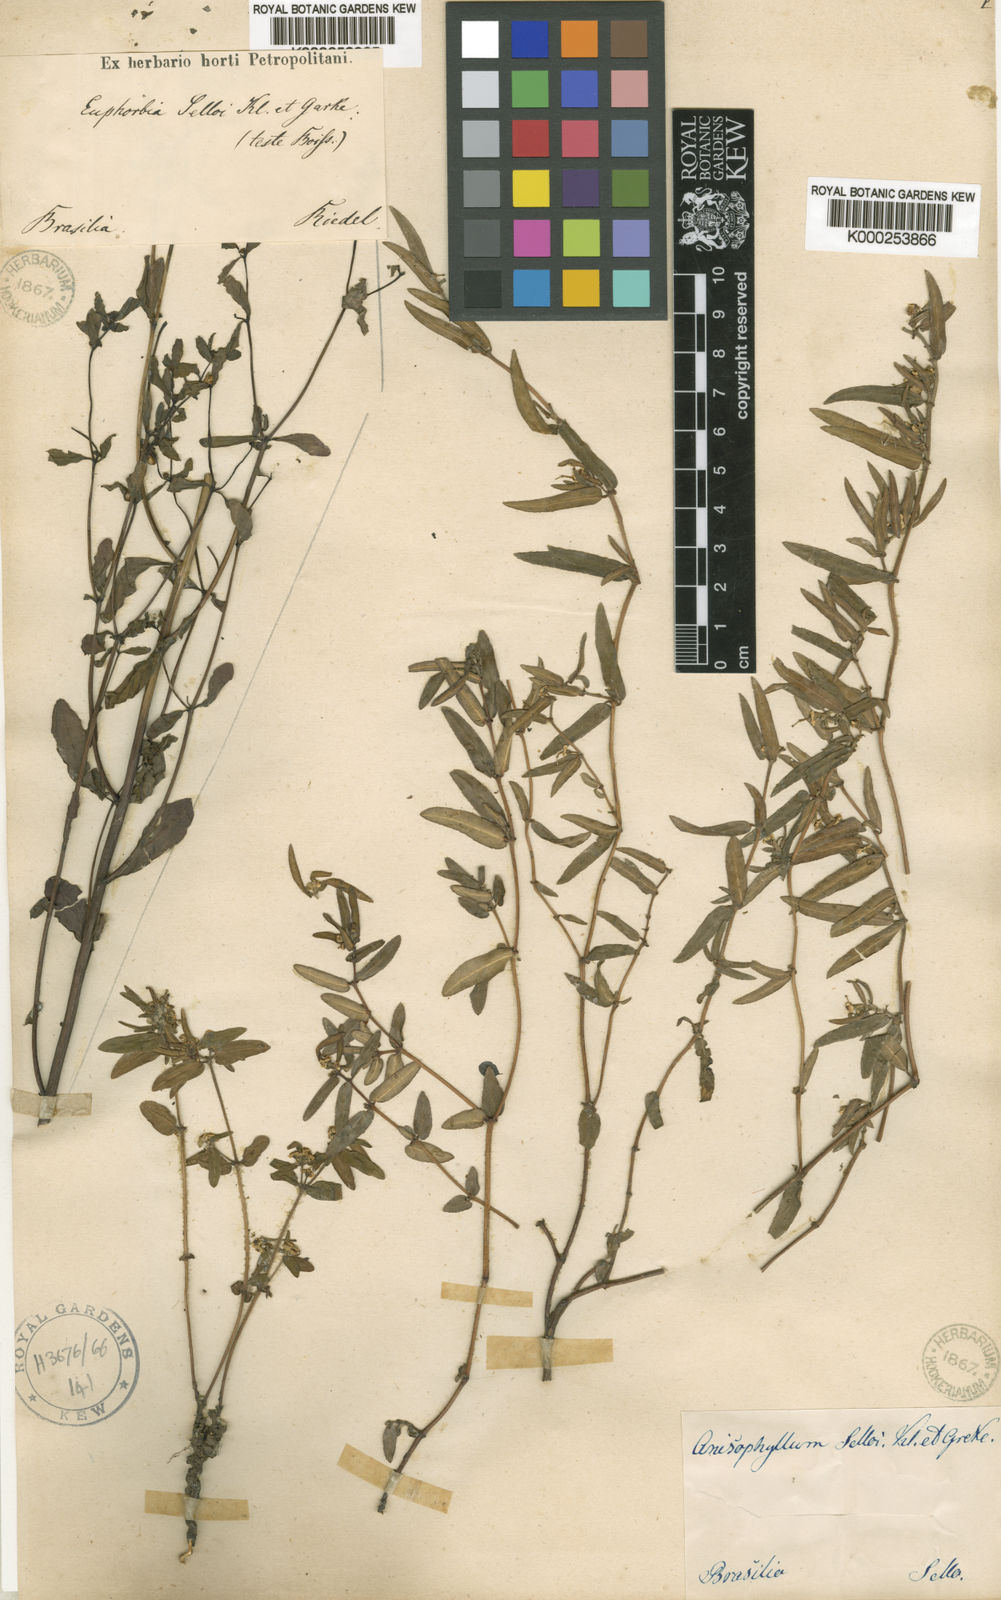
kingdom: Plantae
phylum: Tracheophyta
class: Magnoliopsida
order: Malpighiales
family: Euphorbiaceae
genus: Euphorbia
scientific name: Euphorbia selloi
